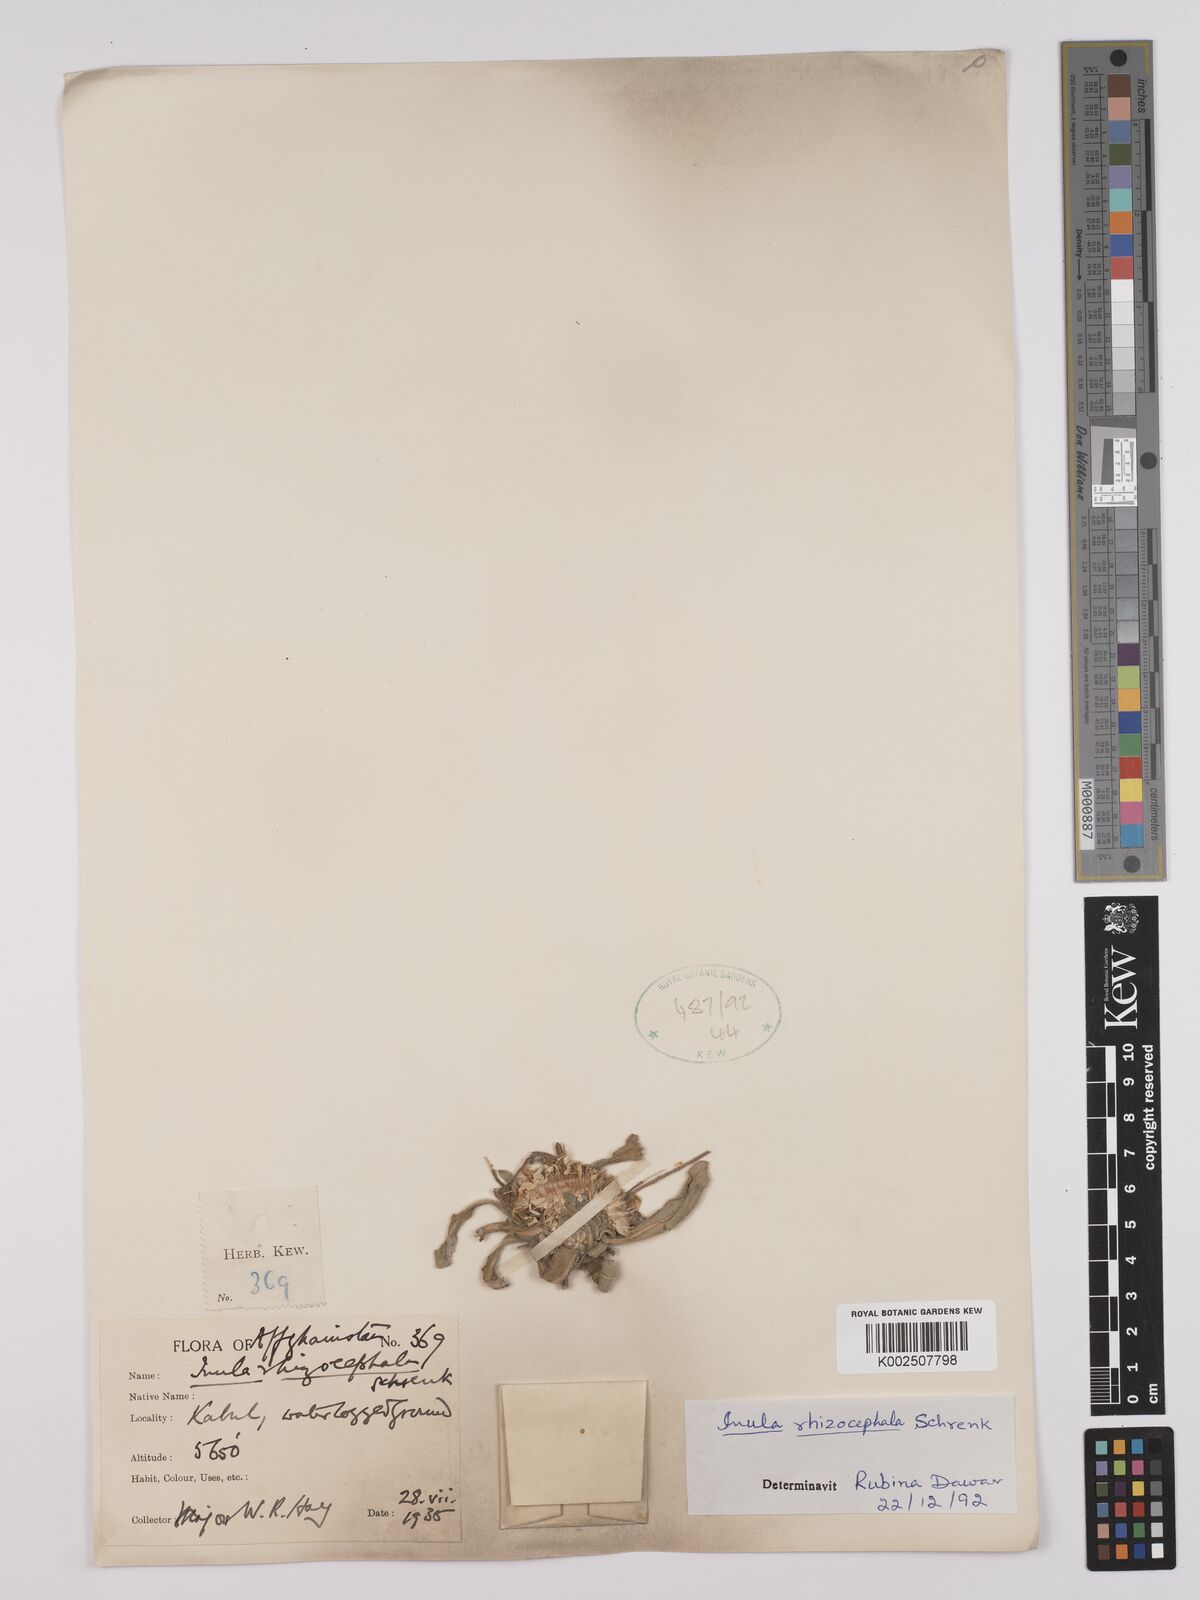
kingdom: Plantae
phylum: Tracheophyta
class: Magnoliopsida
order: Asterales
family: Asteraceae
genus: Inula
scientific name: Inula rhizocephala
